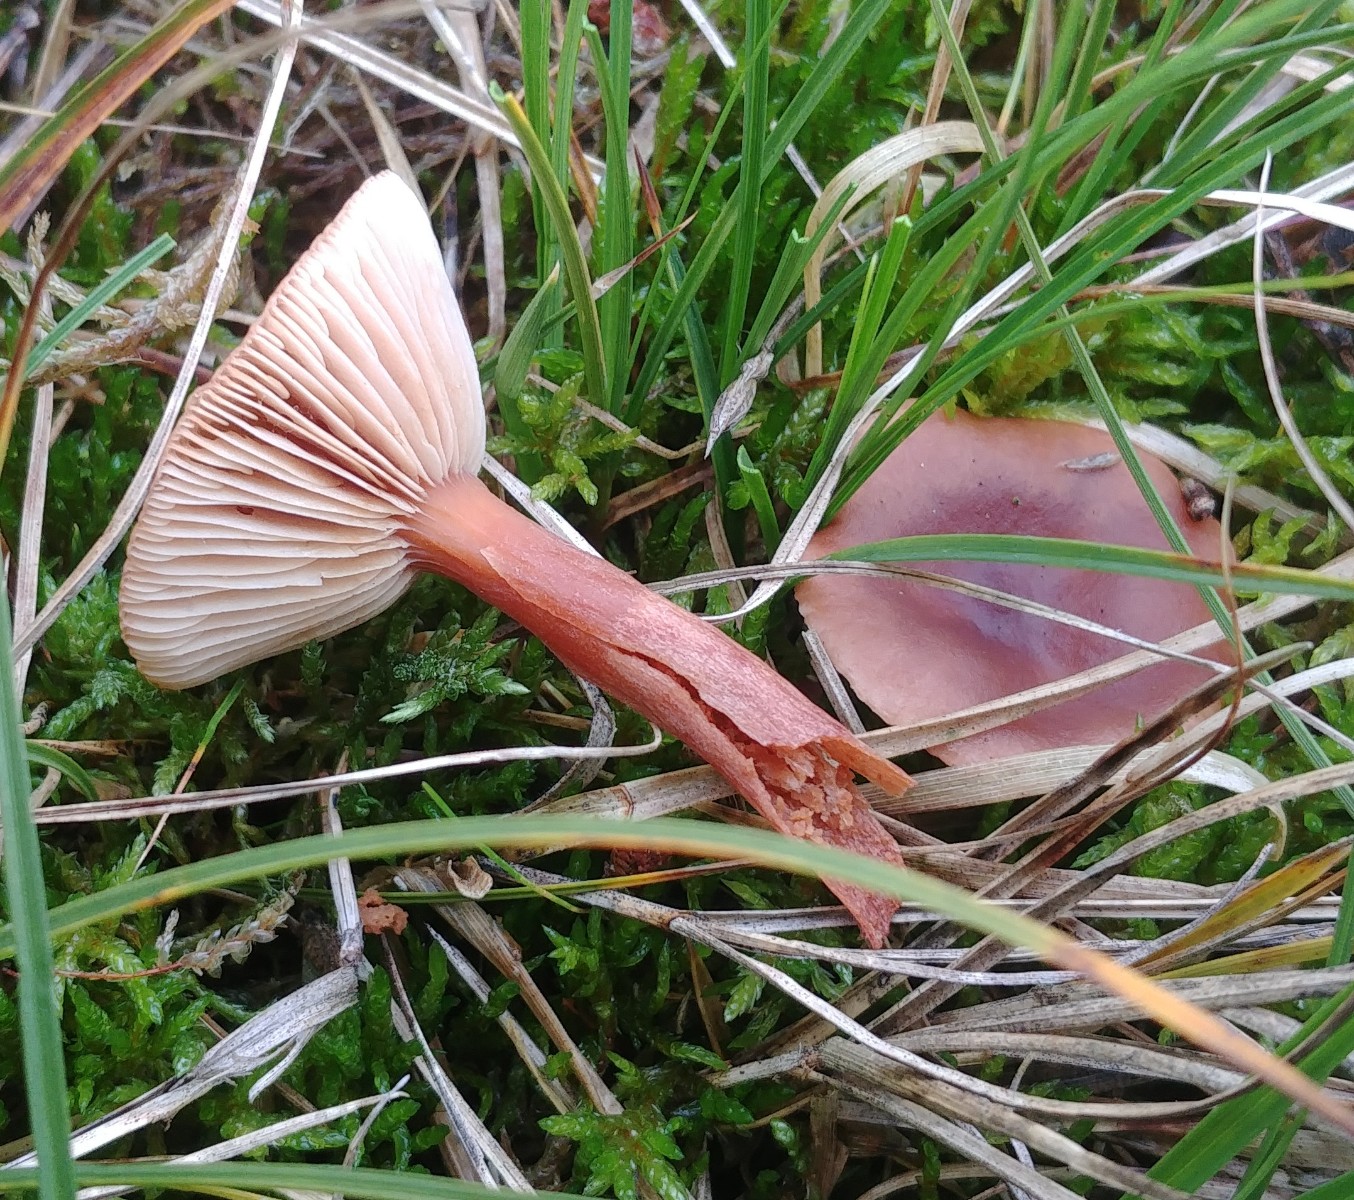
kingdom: Fungi
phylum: Basidiomycota
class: Agaricomycetes
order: Russulales
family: Russulaceae
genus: Lactarius
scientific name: Lactarius rufus
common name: rødbrun mælkehat
